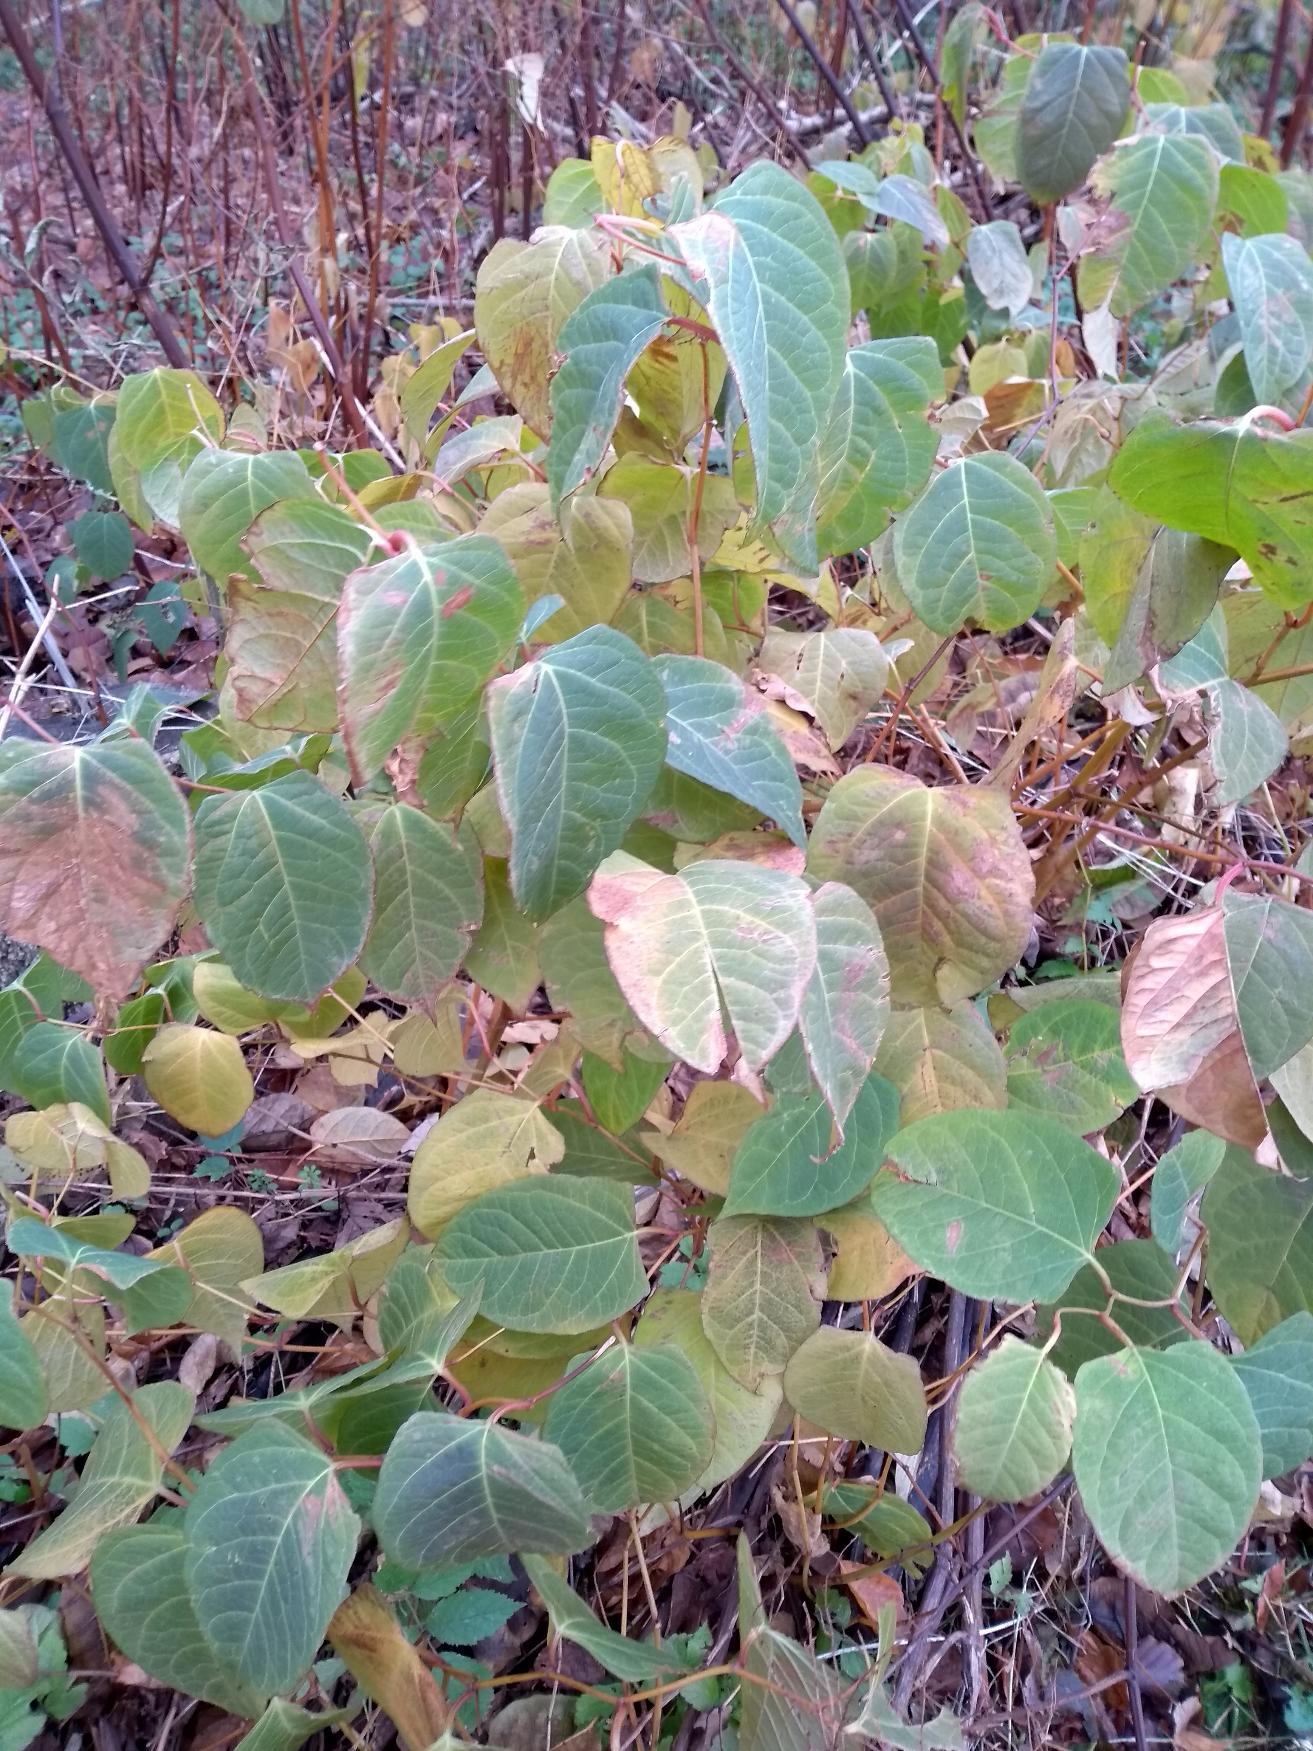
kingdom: Plantae
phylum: Tracheophyta
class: Magnoliopsida
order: Caryophyllales
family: Polygonaceae
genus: Reynoutria
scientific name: Reynoutria japonica
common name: Japan-pileurt
